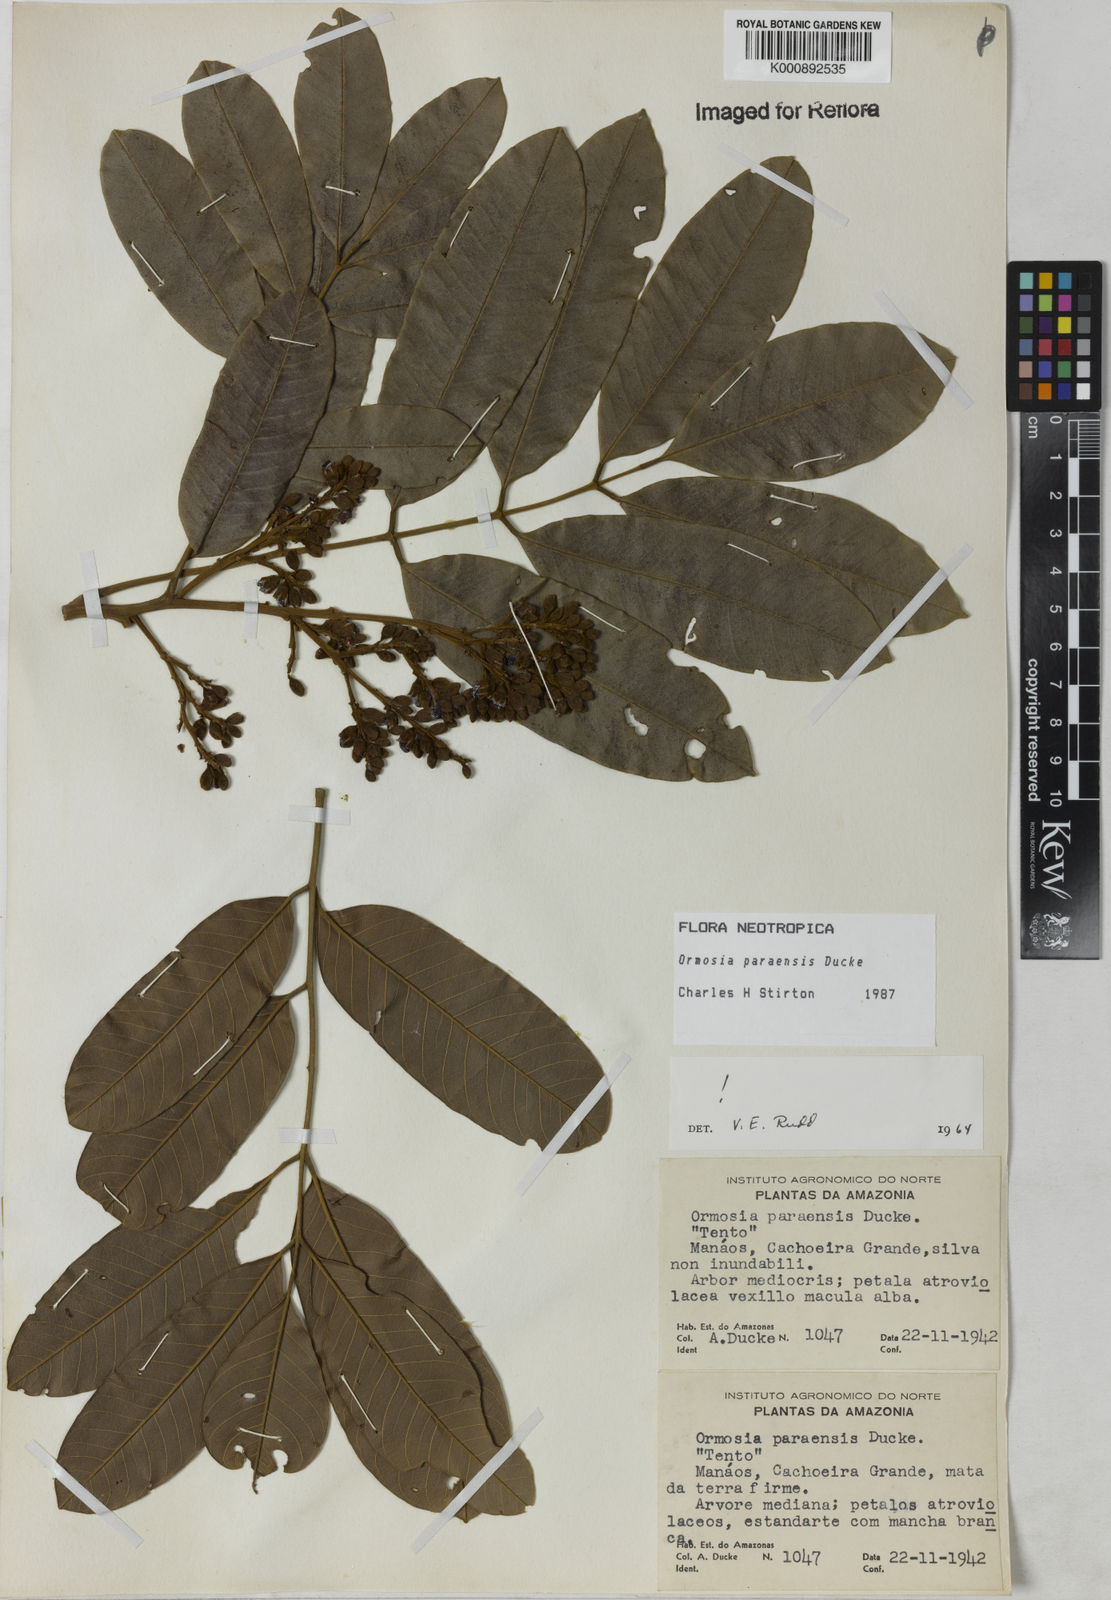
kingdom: Plantae
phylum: Tracheophyta
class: Magnoliopsida
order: Fabales
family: Fabaceae
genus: Ormosia
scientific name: Ormosia paraensis
